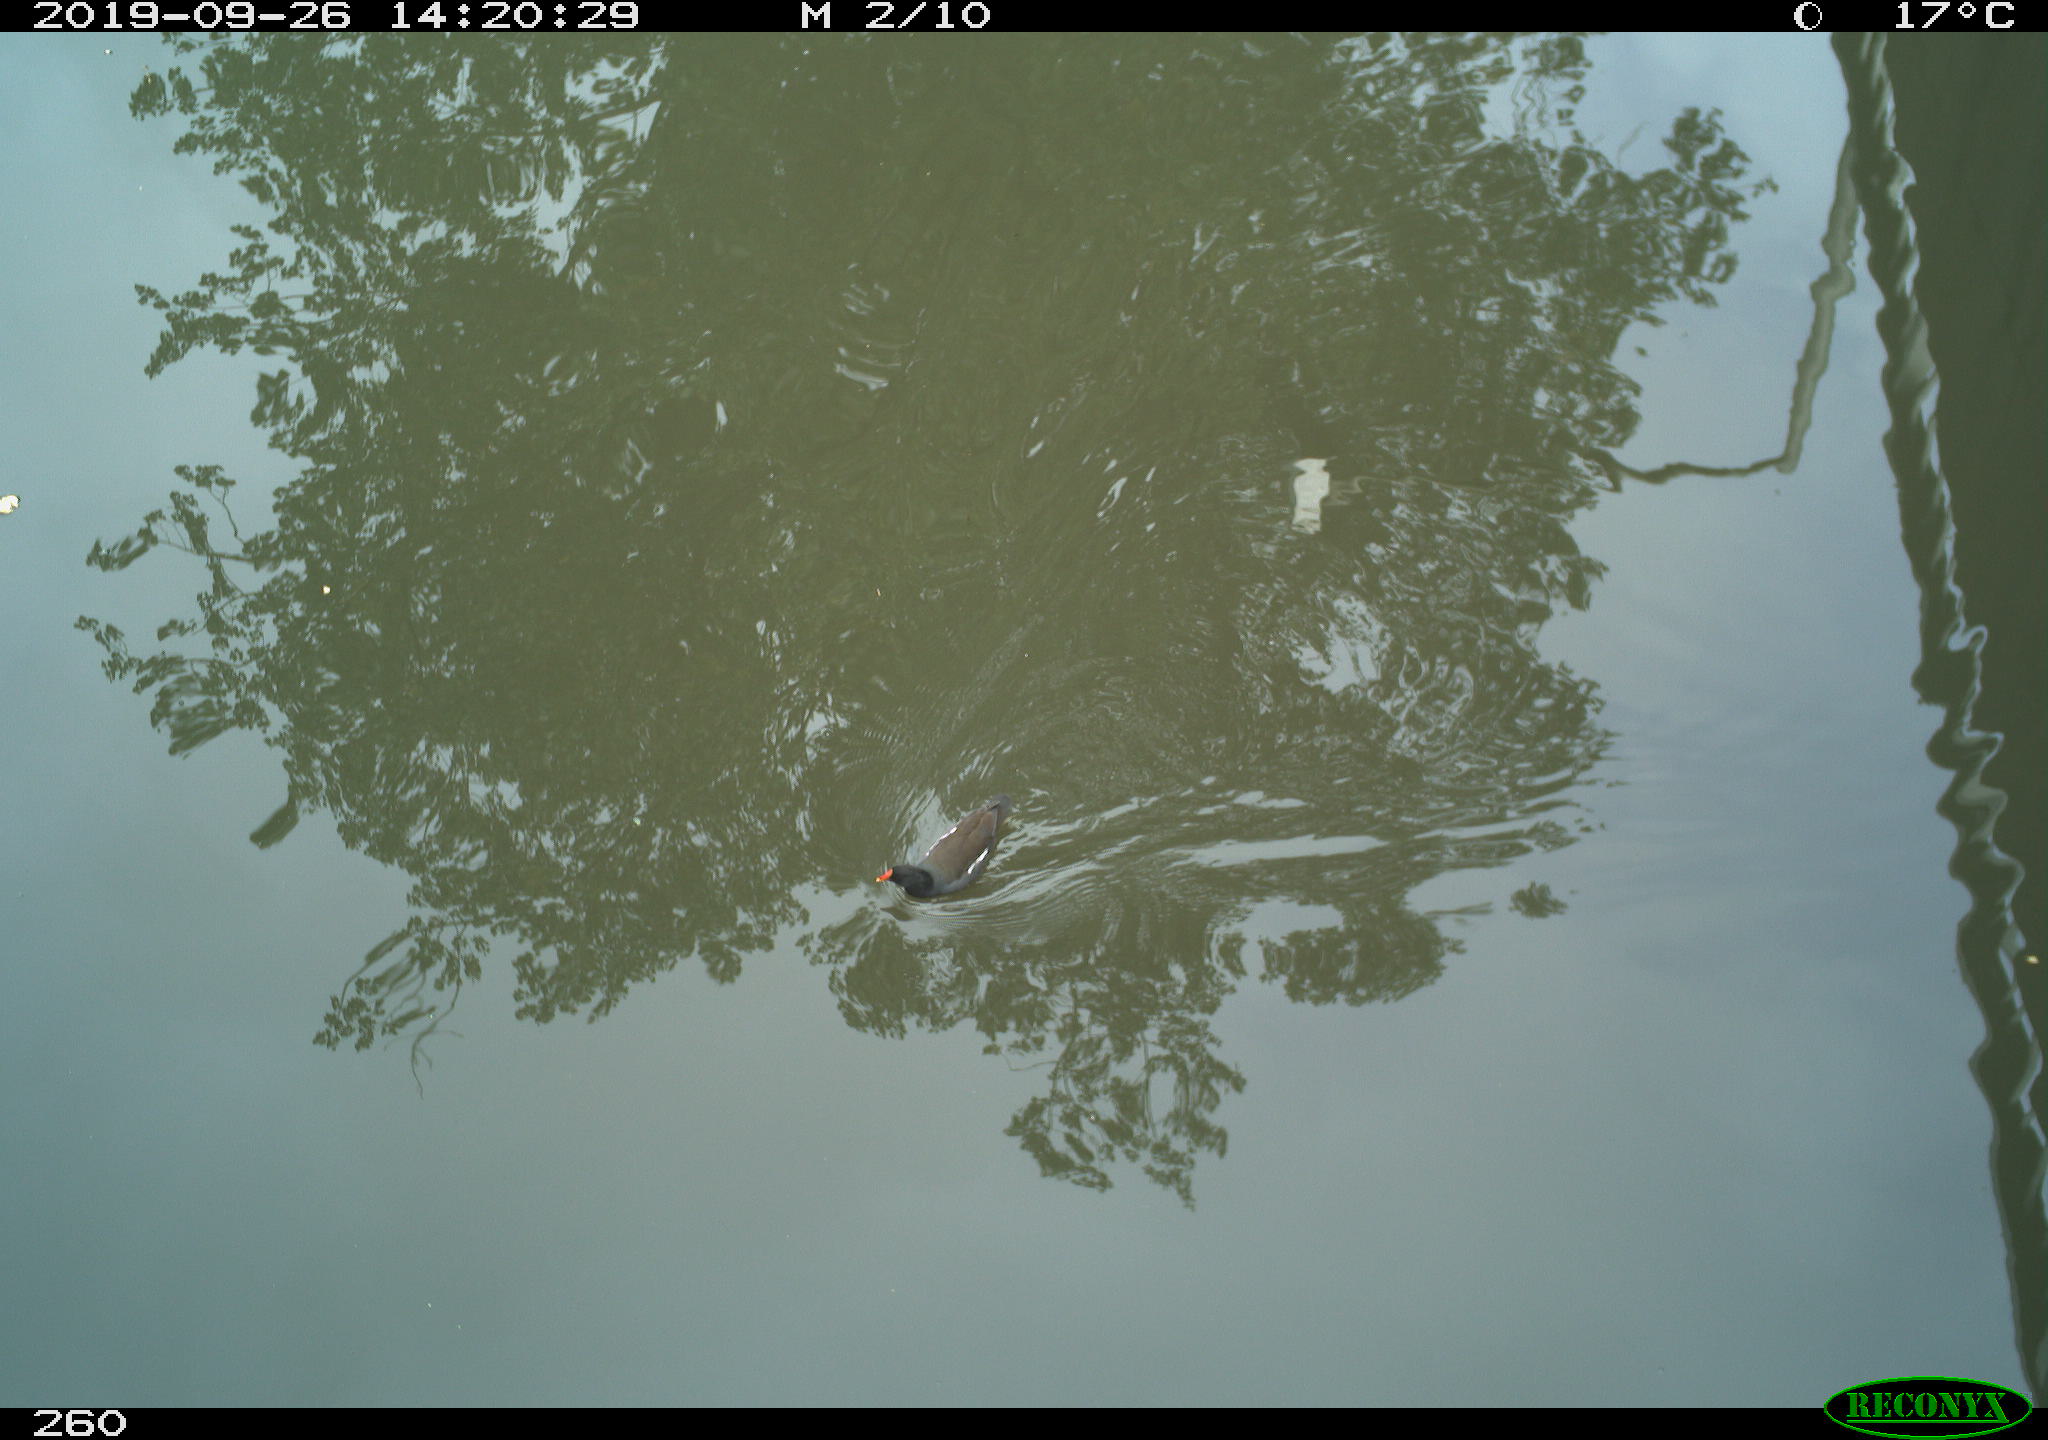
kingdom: Animalia
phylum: Chordata
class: Aves
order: Gruiformes
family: Rallidae
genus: Gallinula
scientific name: Gallinula chloropus
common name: Common moorhen
